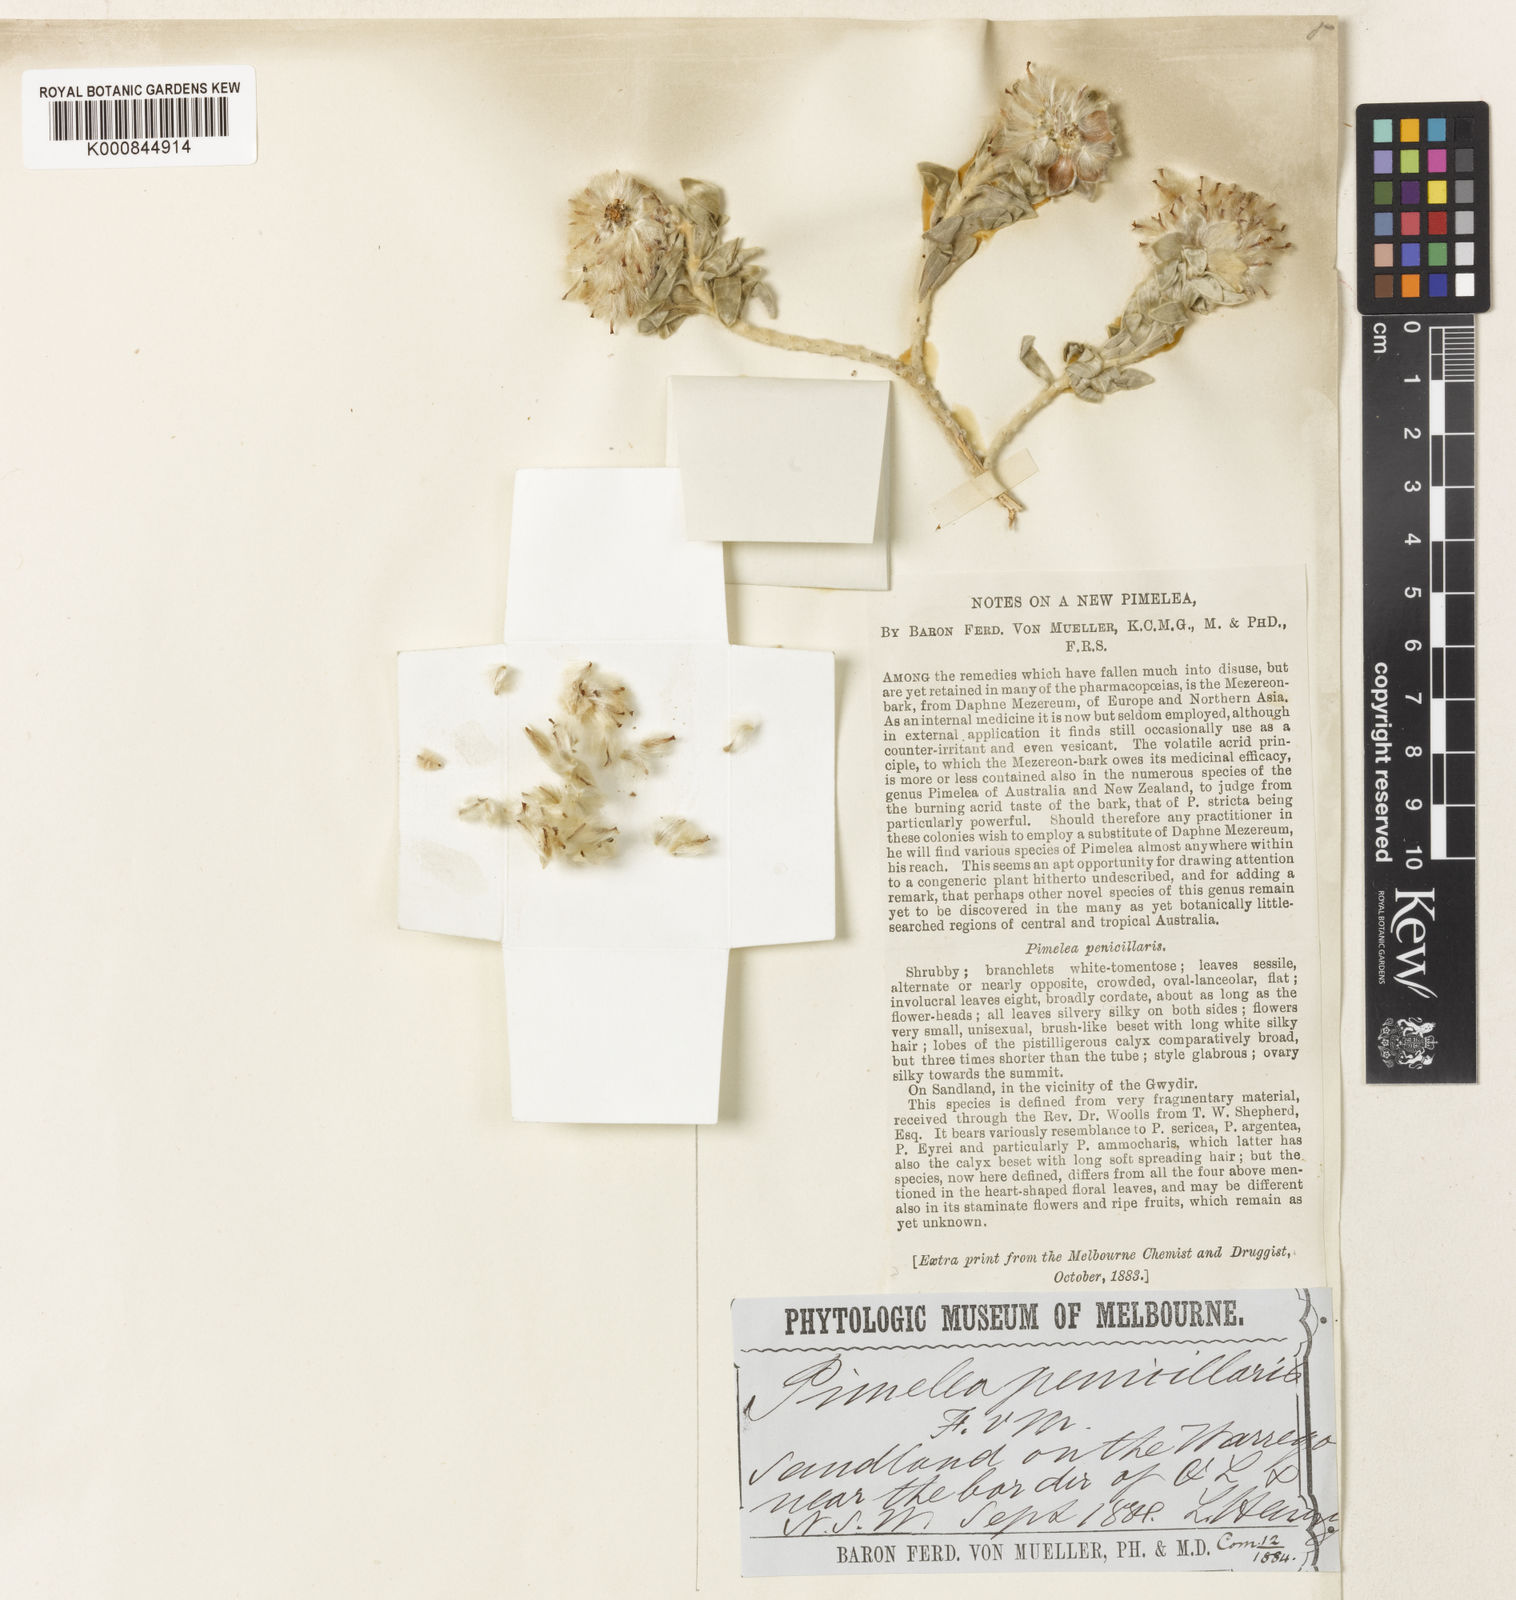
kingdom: Plantae
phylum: Tracheophyta
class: Magnoliopsida
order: Malvales
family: Thymelaeaceae
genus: Pimelea
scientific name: Pimelea penicillaris
